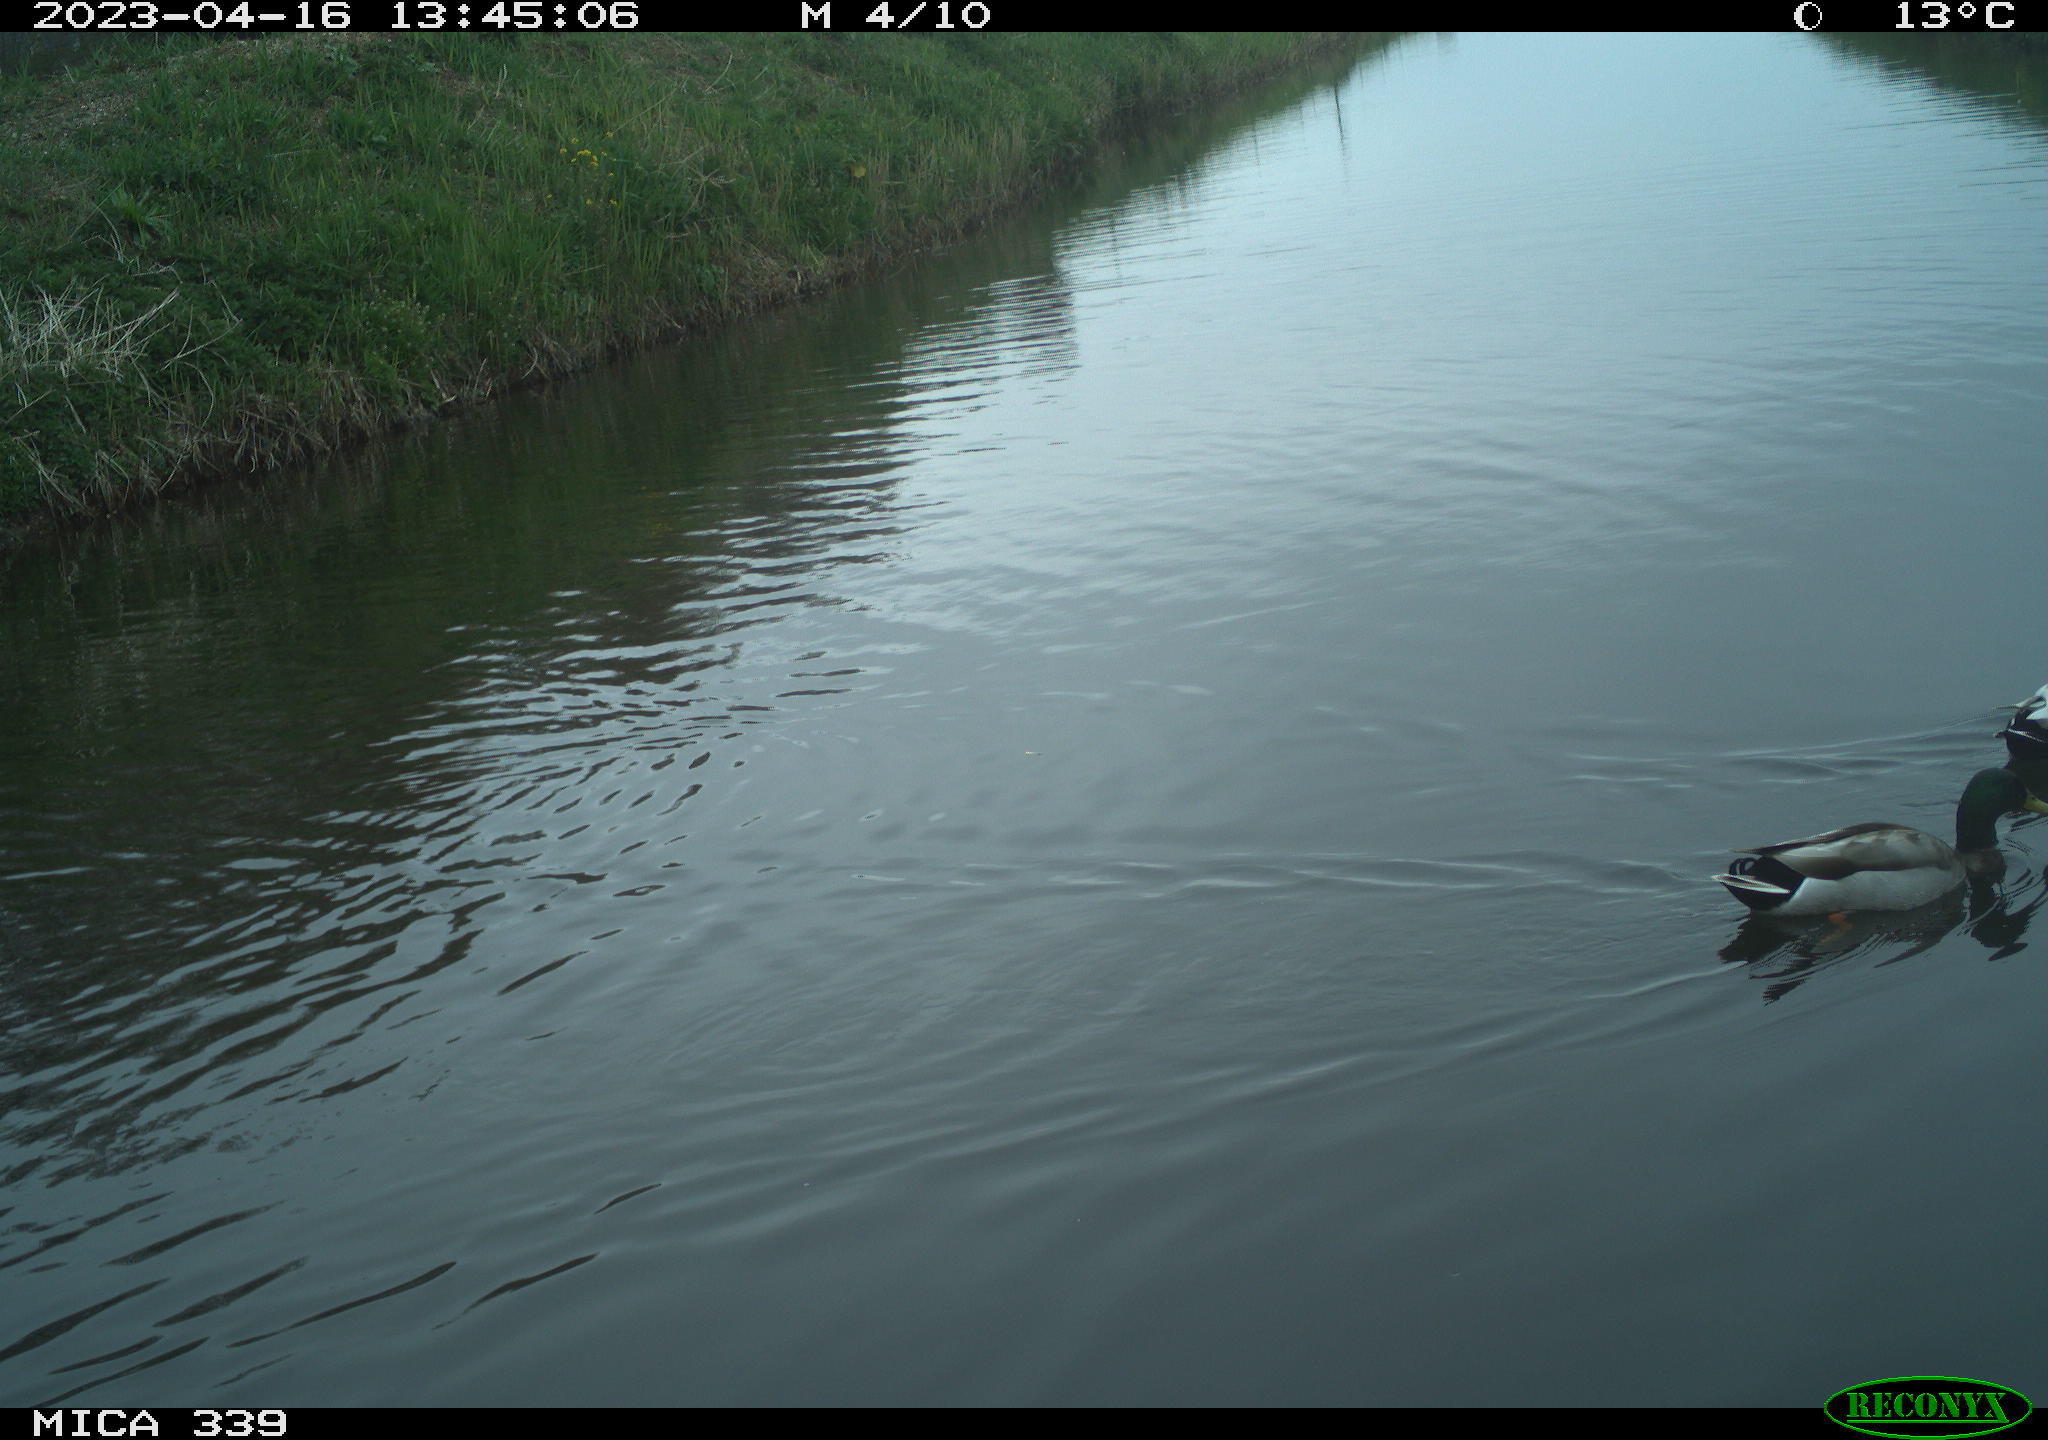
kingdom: Animalia
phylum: Chordata
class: Aves
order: Anseriformes
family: Anatidae
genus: Anas
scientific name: Anas
